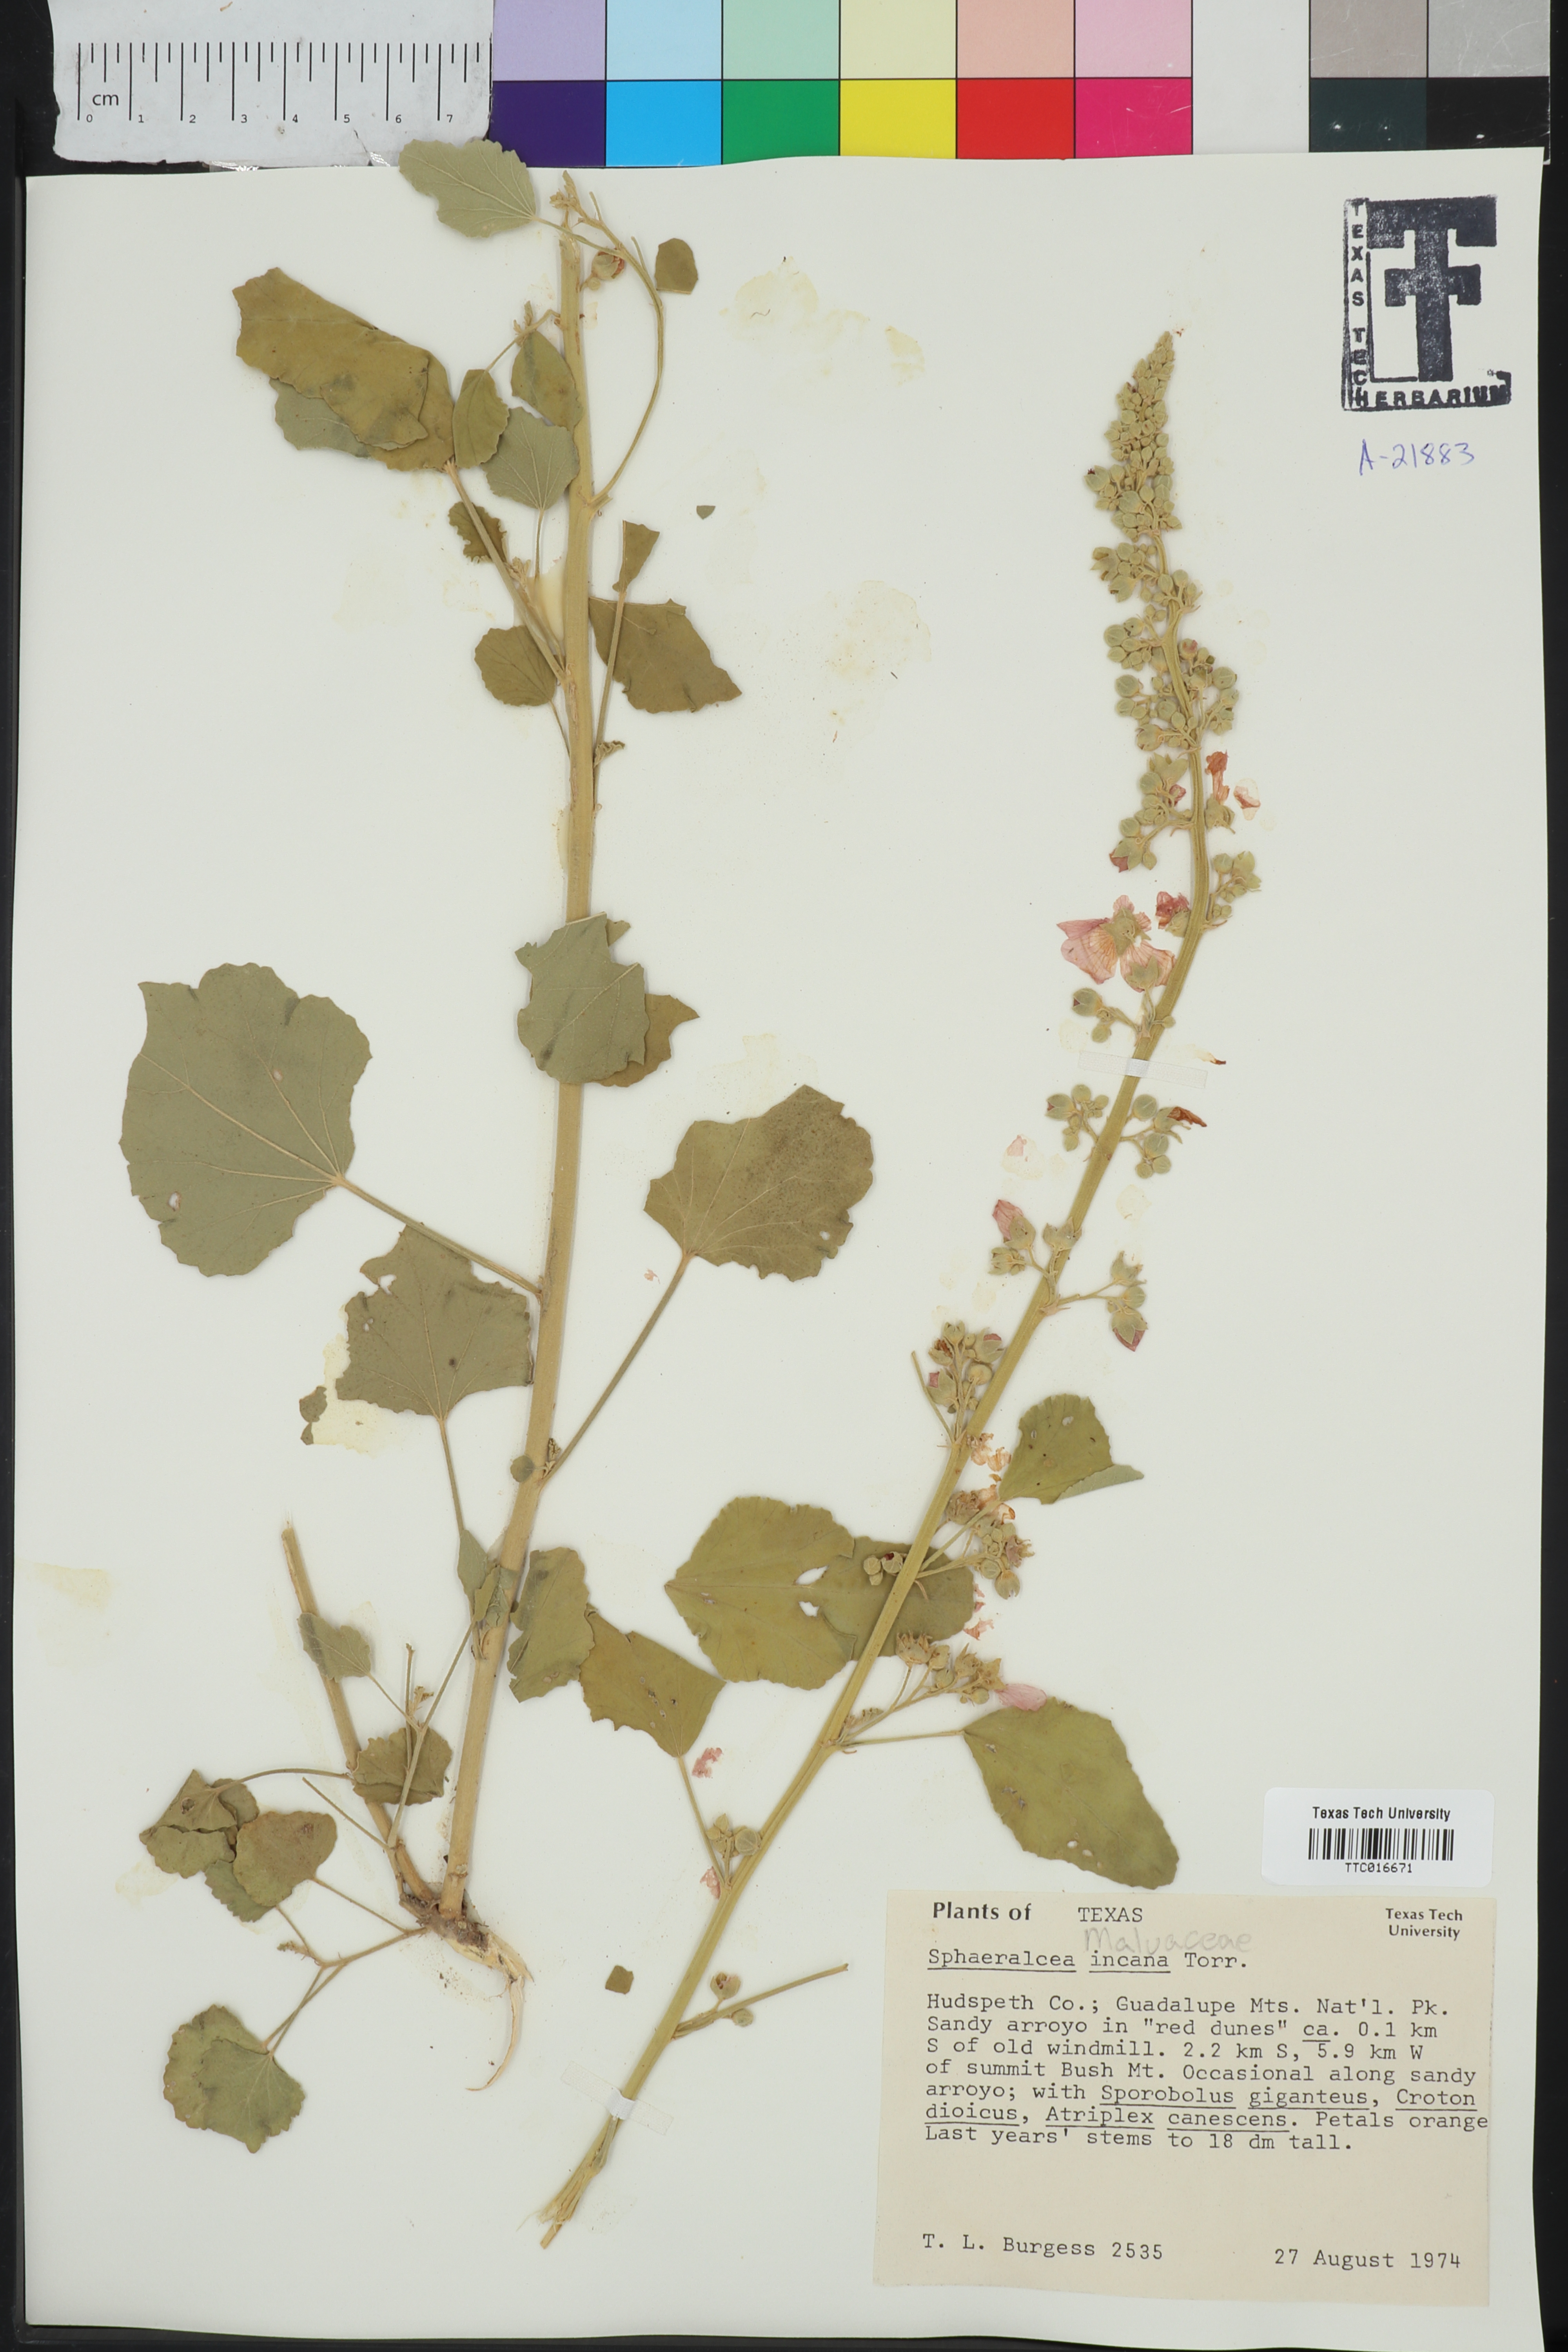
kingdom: Plantae
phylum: Tracheophyta
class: Magnoliopsida
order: Malvales
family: Malvaceae
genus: Sphaeralcea
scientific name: Sphaeralcea incana
